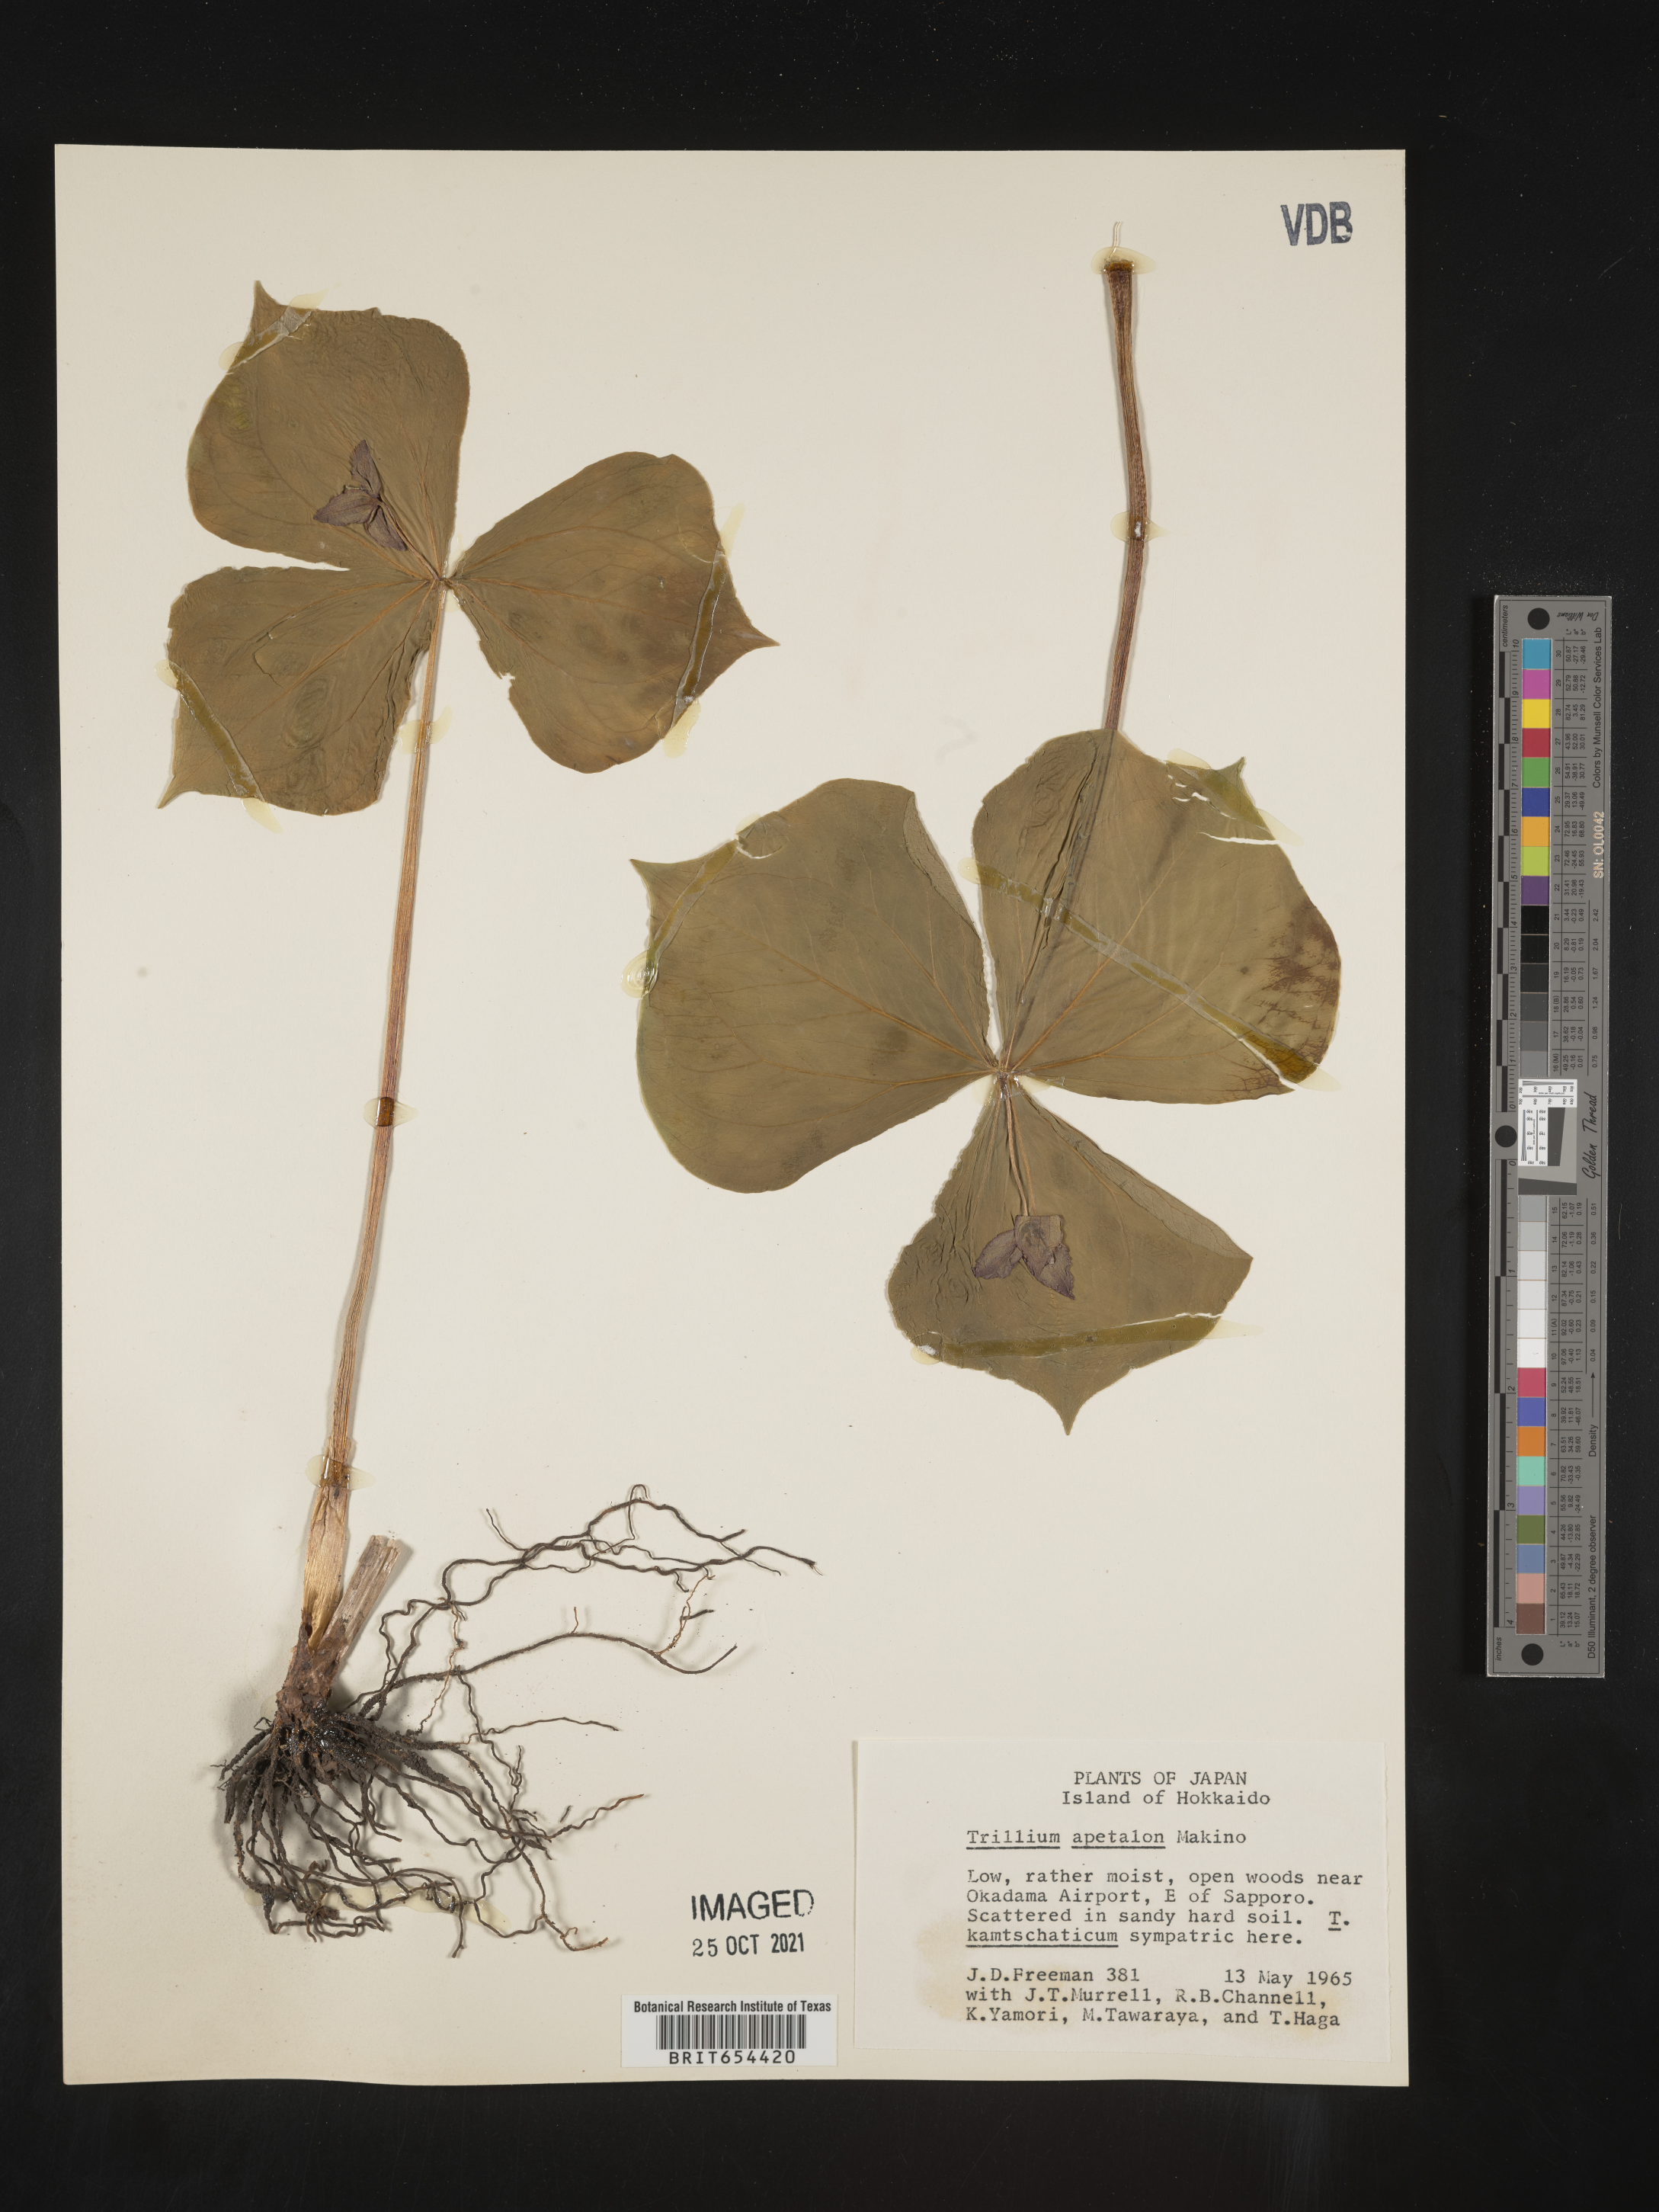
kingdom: Plantae
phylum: Tracheophyta
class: Liliopsida
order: Liliales
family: Melanthiaceae
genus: Trillium
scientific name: Trillium
